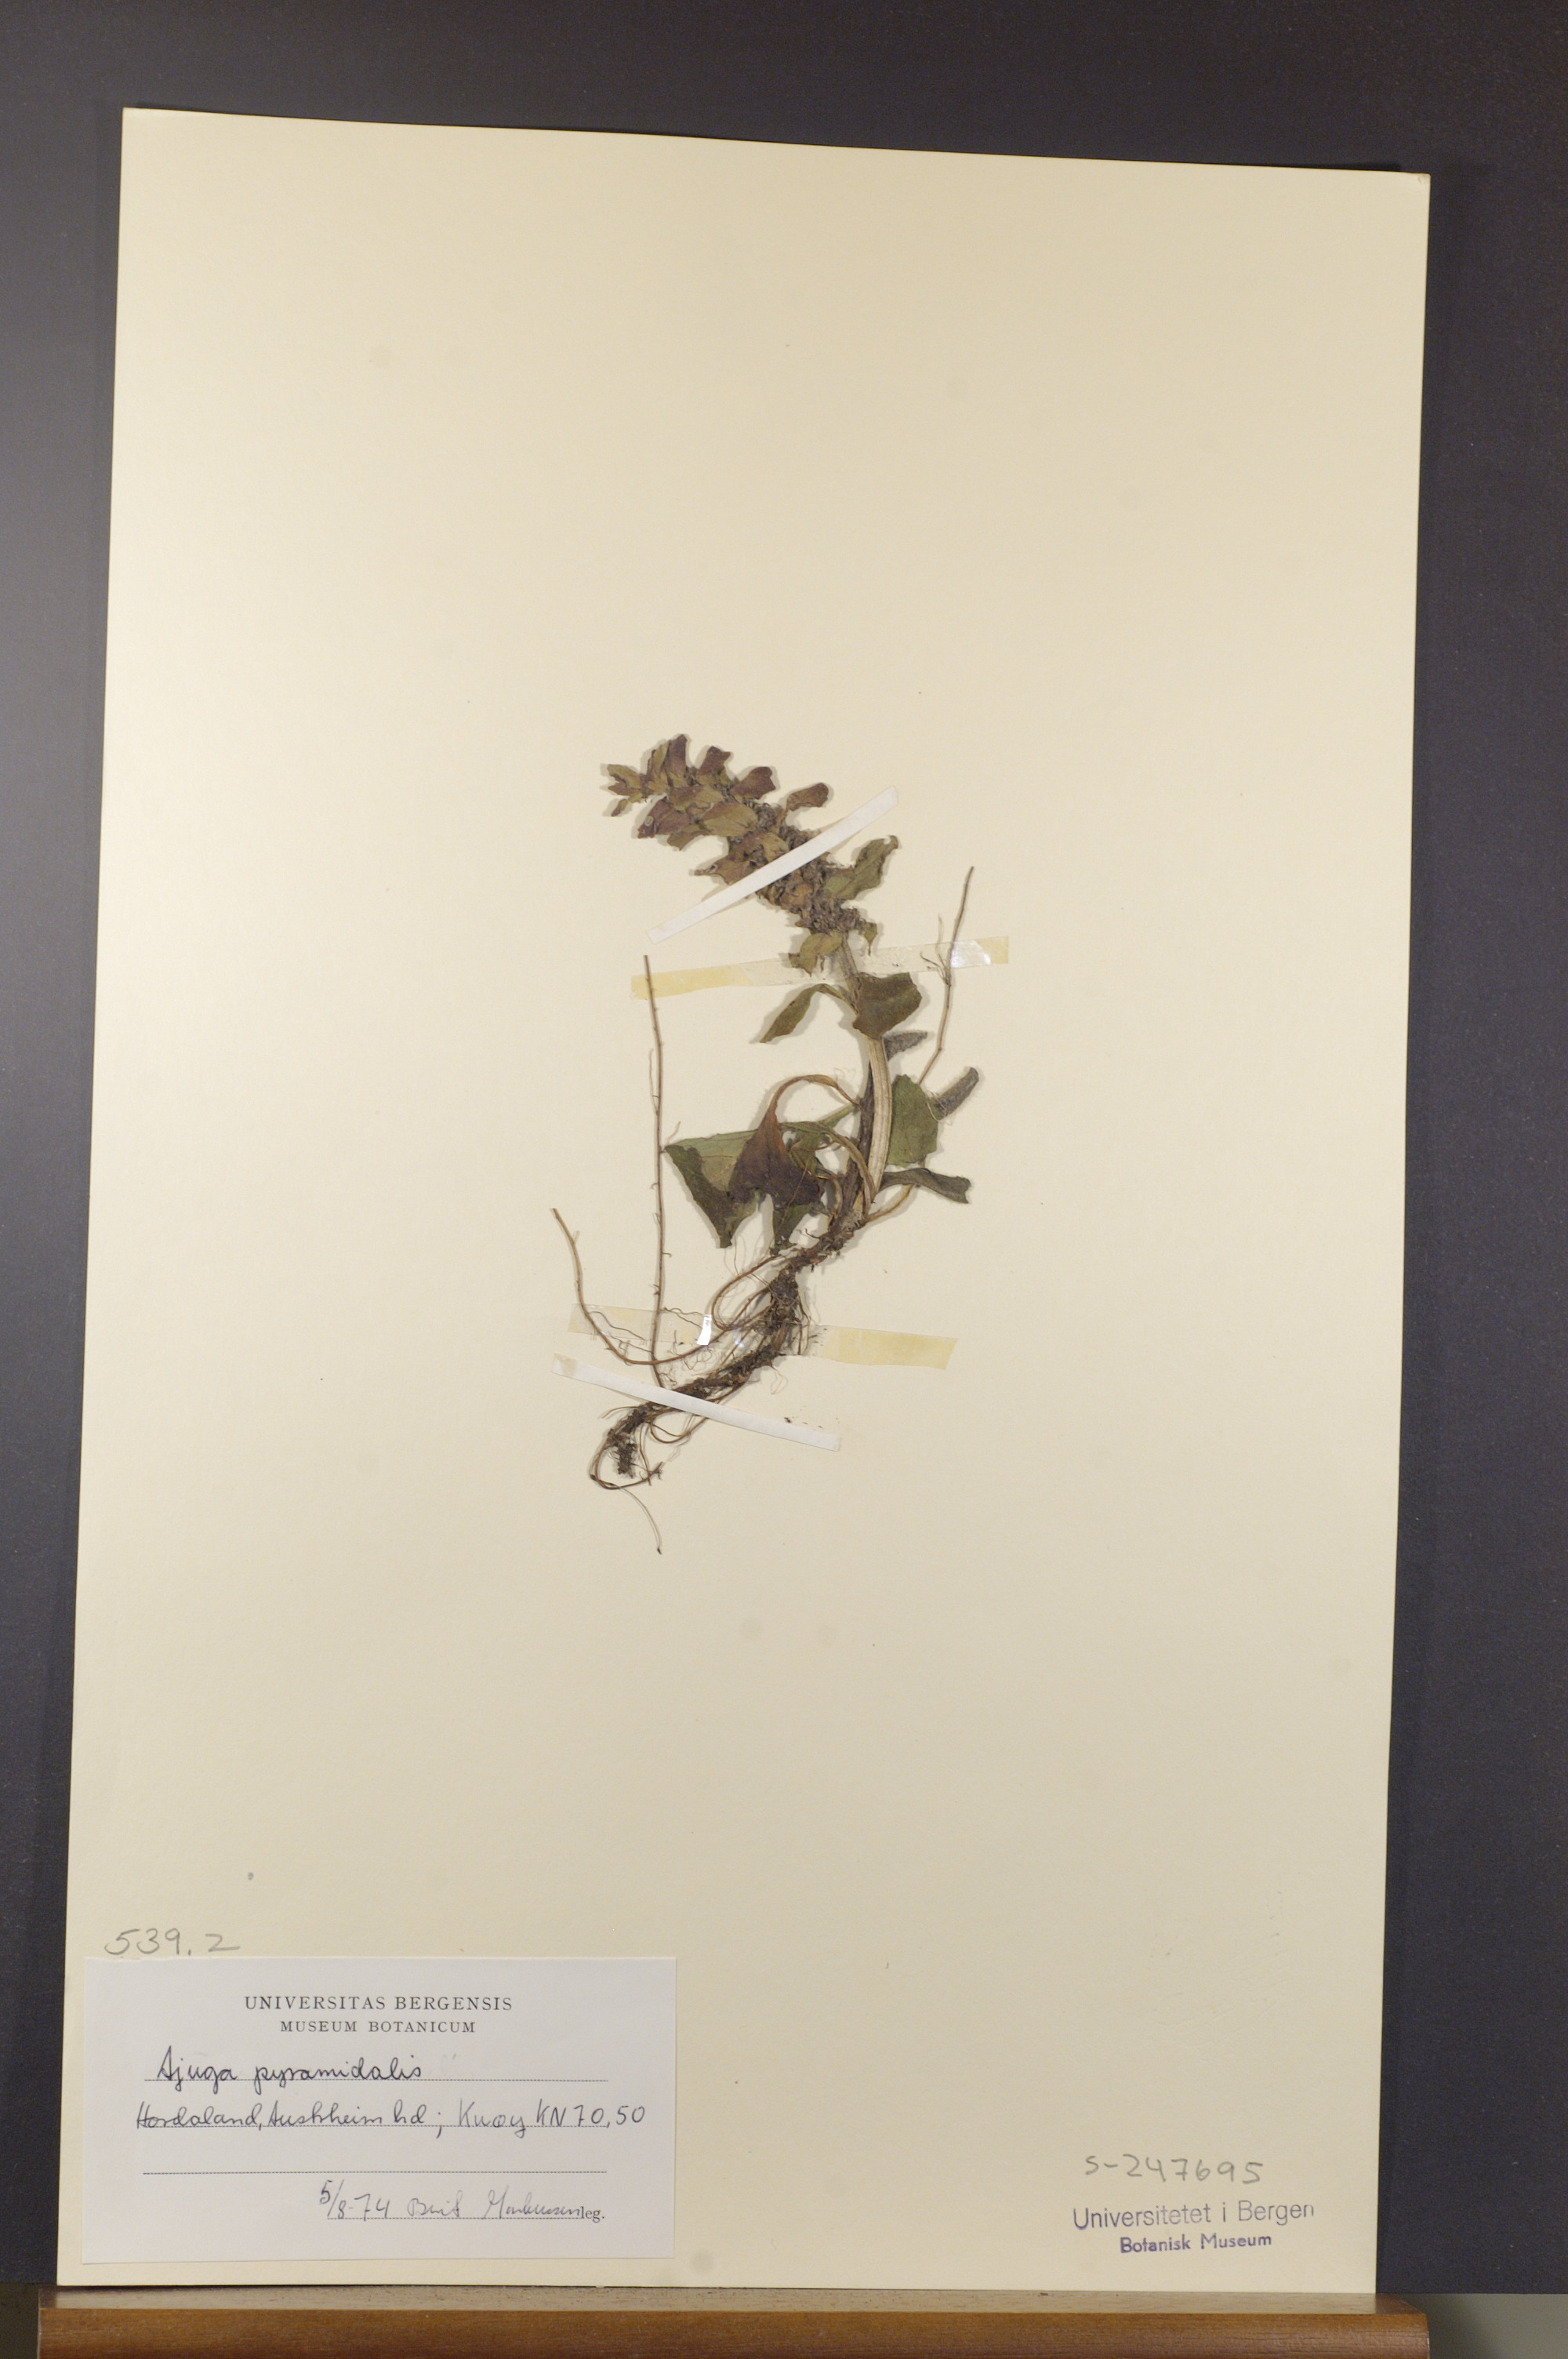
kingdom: Plantae
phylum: Tracheophyta
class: Magnoliopsida
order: Lamiales
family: Lamiaceae
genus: Ajuga
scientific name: Ajuga pyramidalis
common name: Pyramid bugle
